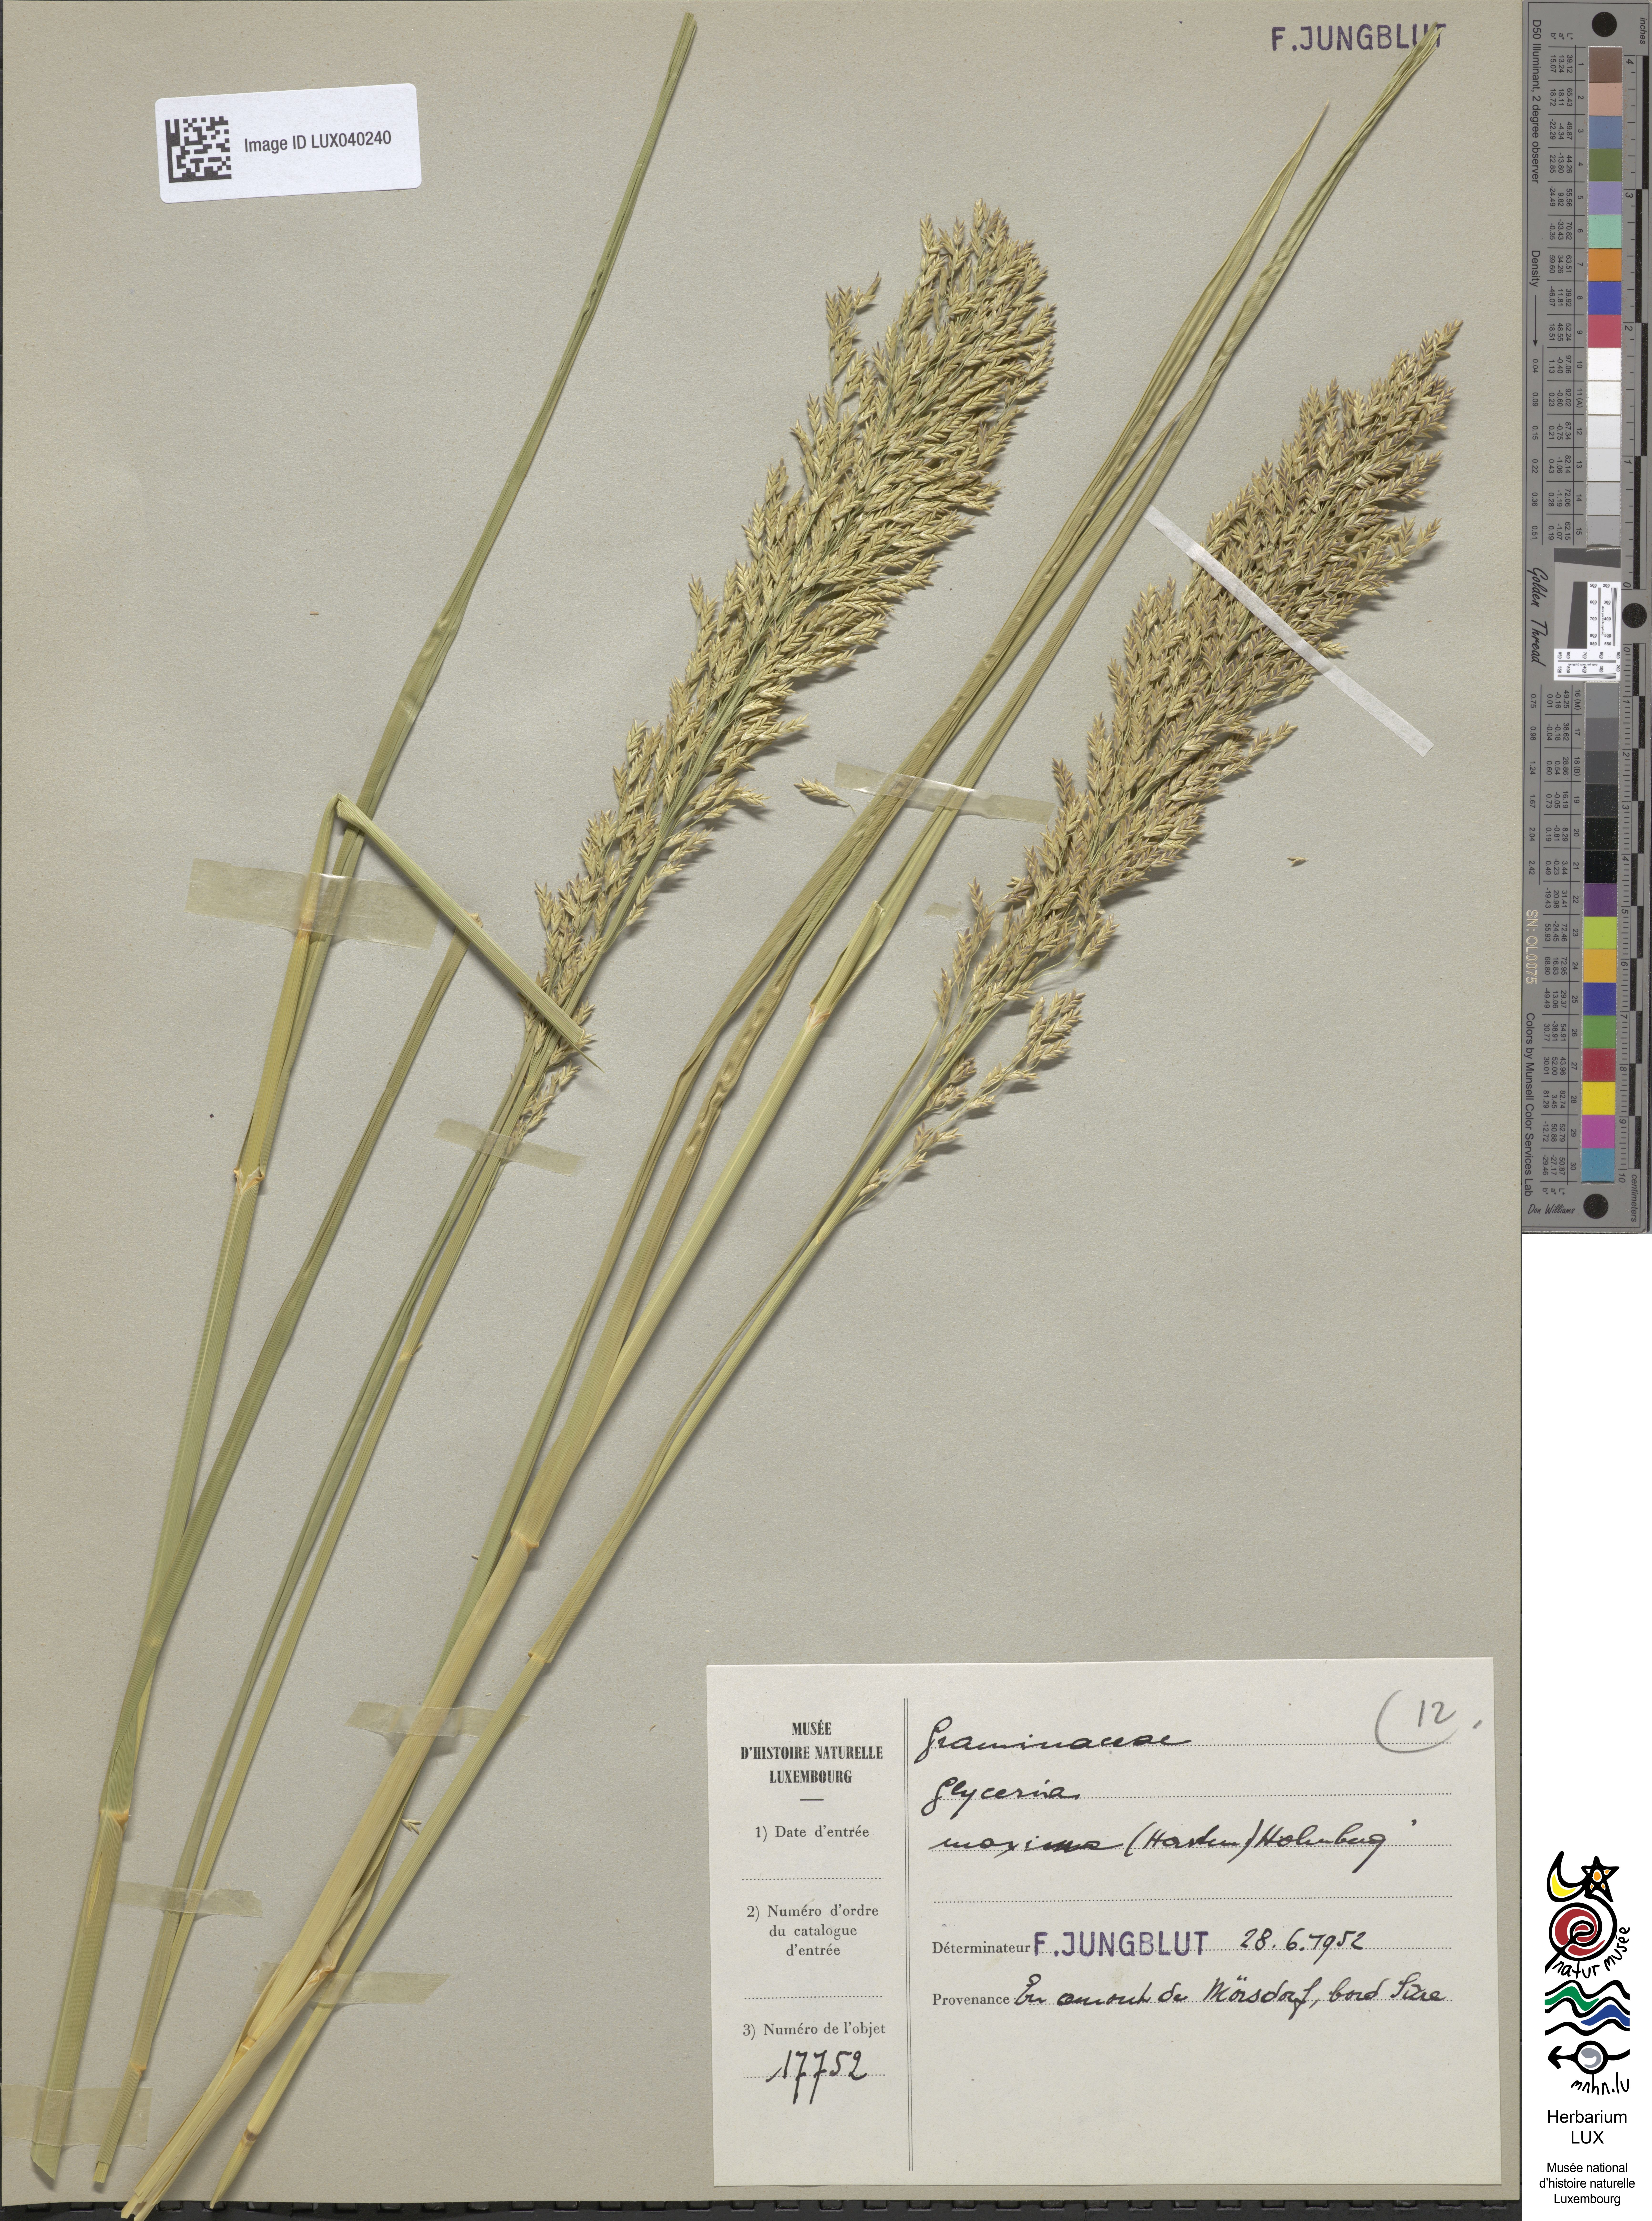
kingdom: Plantae
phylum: Tracheophyta
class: Liliopsida
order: Poales
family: Poaceae
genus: Glyceria
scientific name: Glyceria maxima
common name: Reed mannagrass
